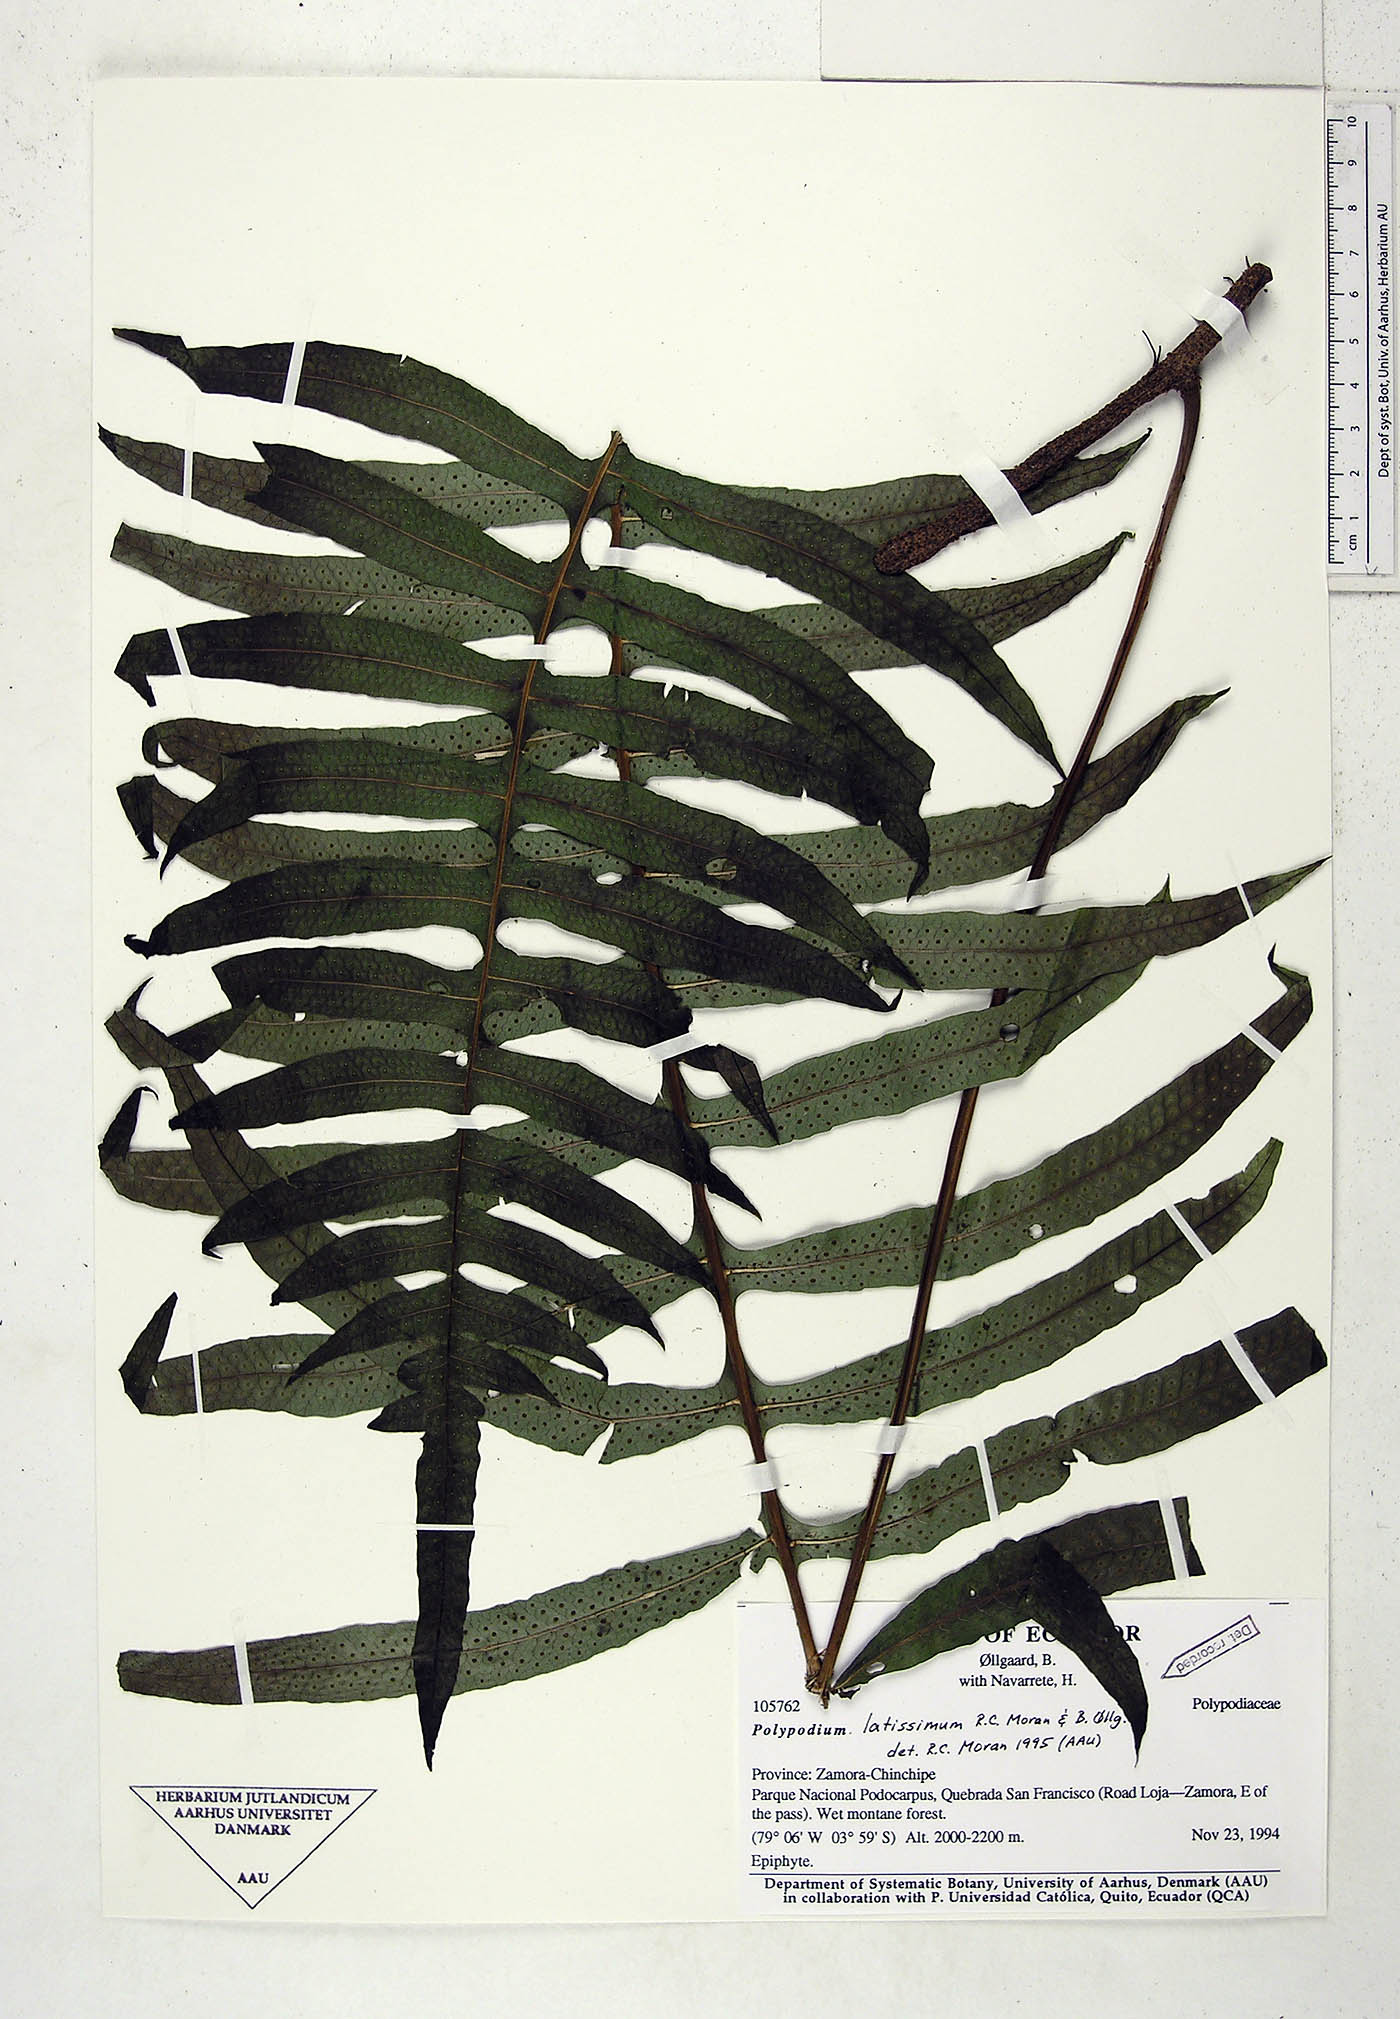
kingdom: Plantae
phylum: Tracheophyta
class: Polypodiopsida
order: Polypodiales
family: Polypodiaceae
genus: Serpocaulon
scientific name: Serpocaulon latissimum
